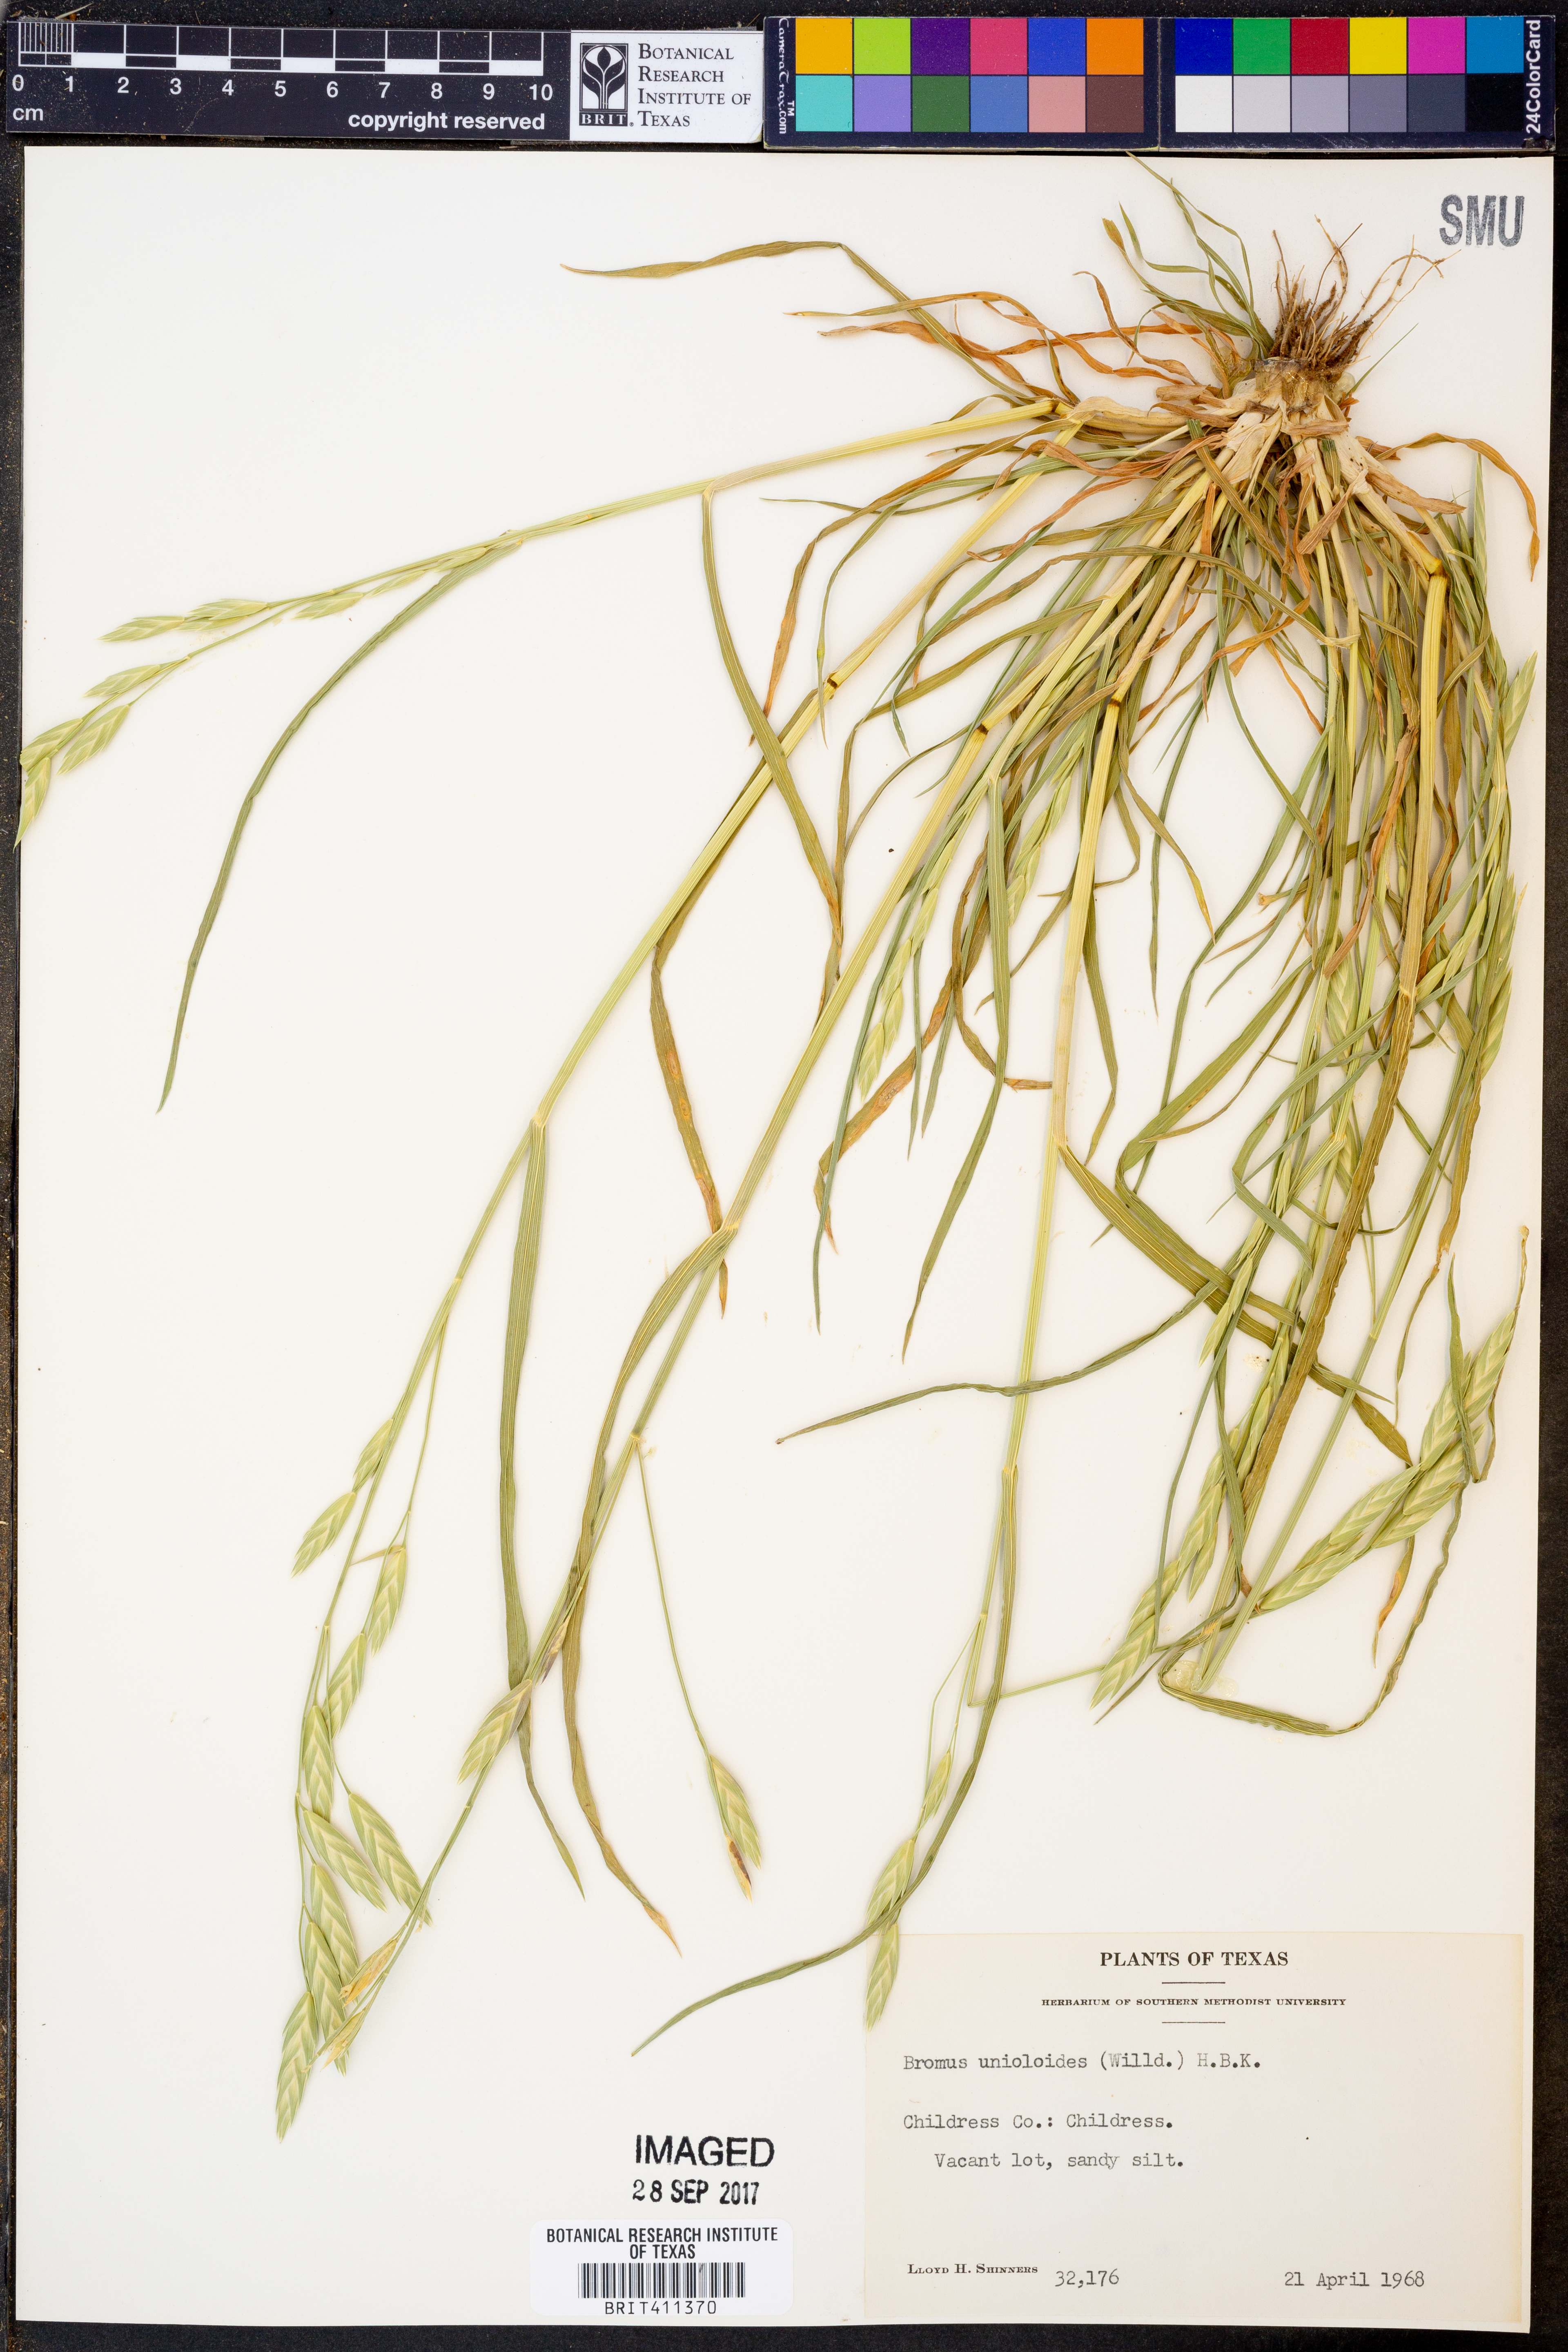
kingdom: Plantae
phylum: Tracheophyta
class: Liliopsida
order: Poales
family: Poaceae
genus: Bromus
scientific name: Bromus catharticus
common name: Rescuegrass
